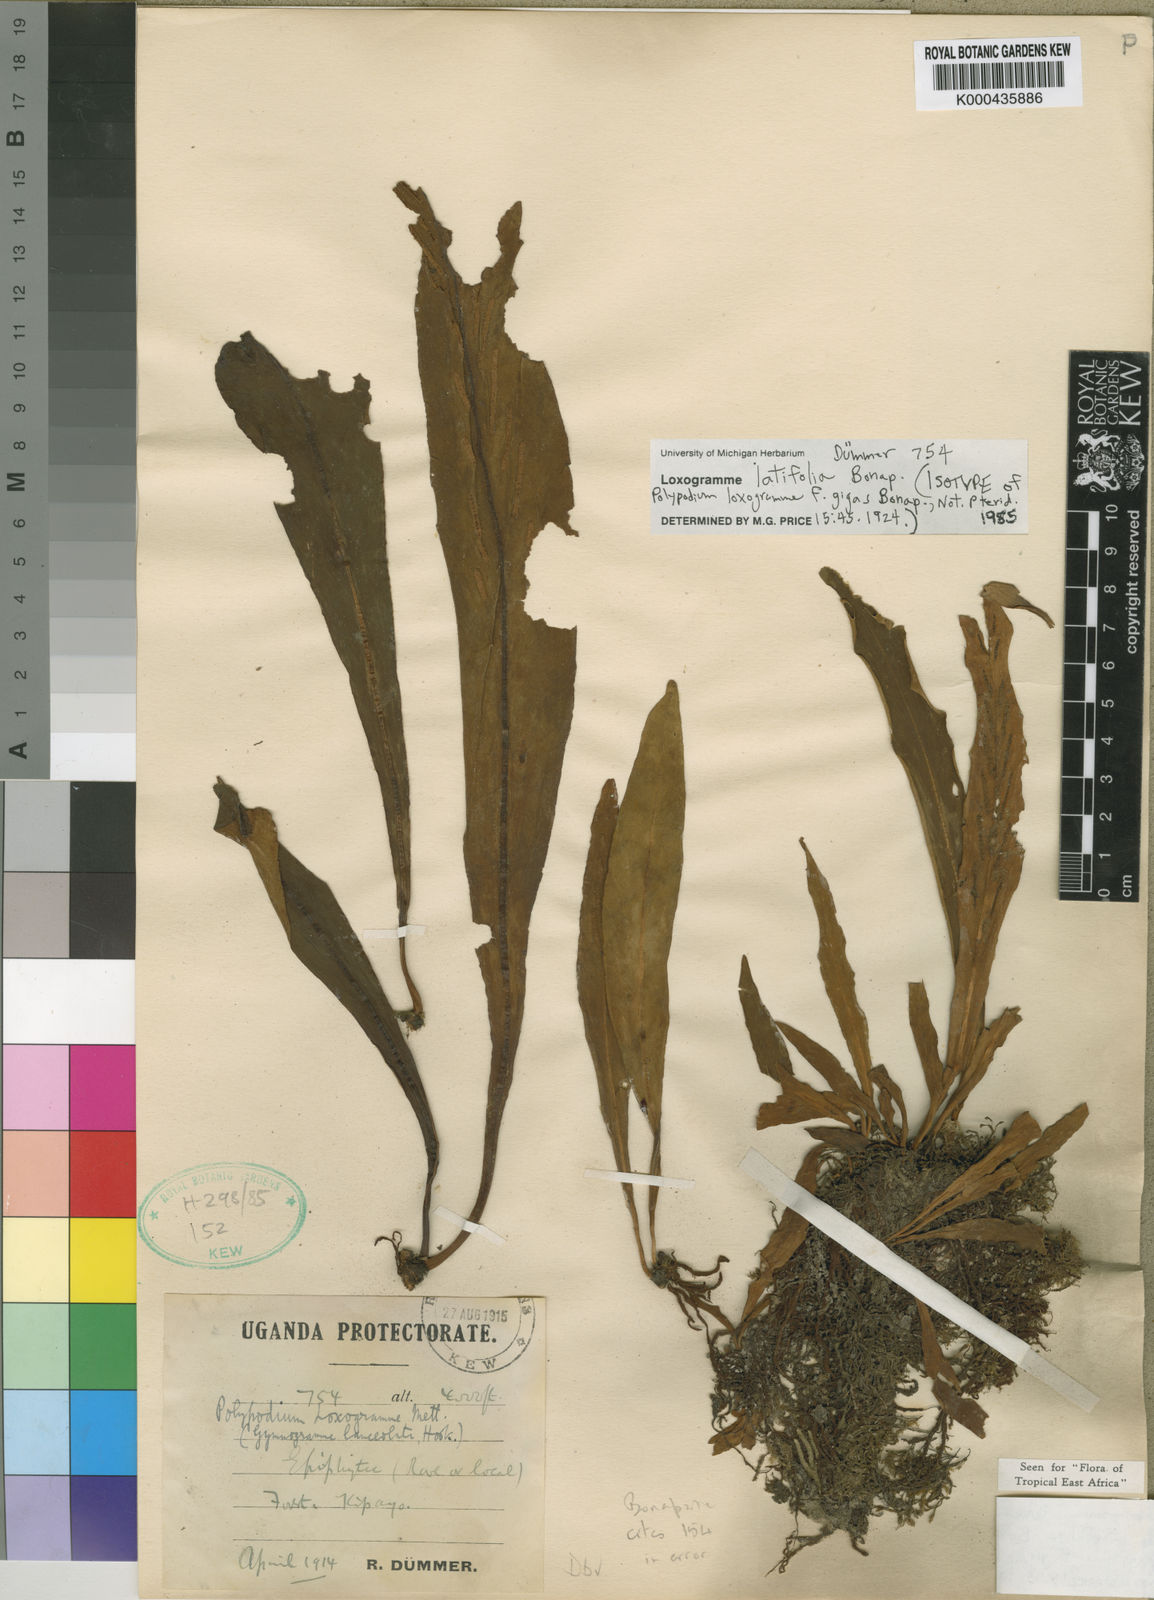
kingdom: Plantae
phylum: Tracheophyta
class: Polypodiopsida
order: Polypodiales
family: Polypodiaceae
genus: Loxogramme
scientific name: Loxogramme latifolia
